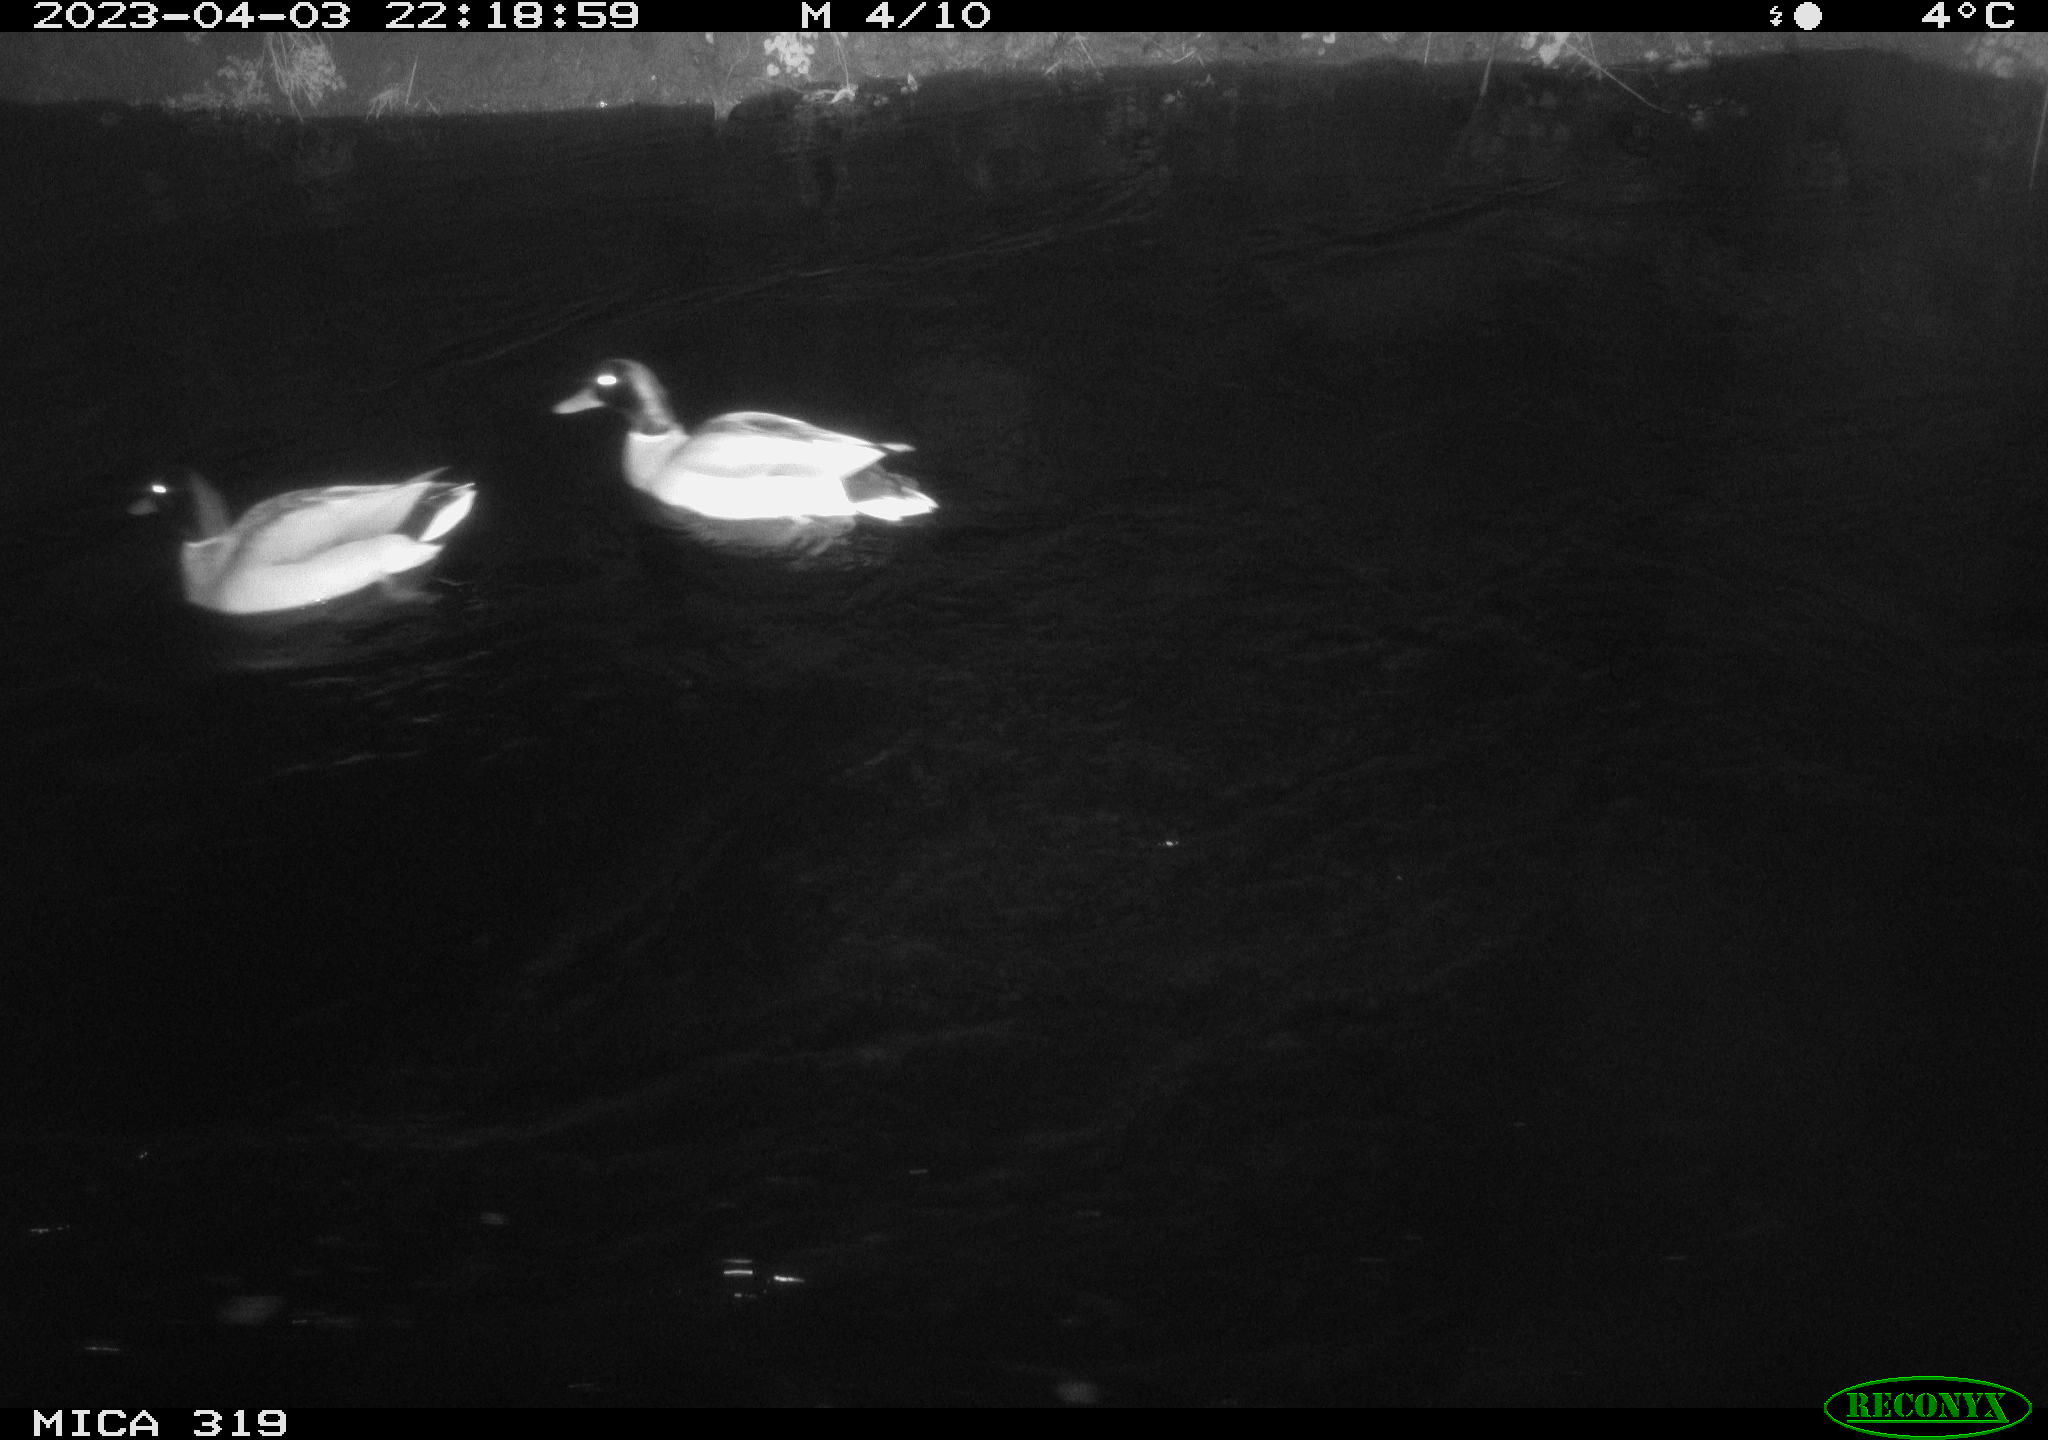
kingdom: Animalia
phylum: Chordata
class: Aves
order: Anseriformes
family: Anatidae
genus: Anas
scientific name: Anas
